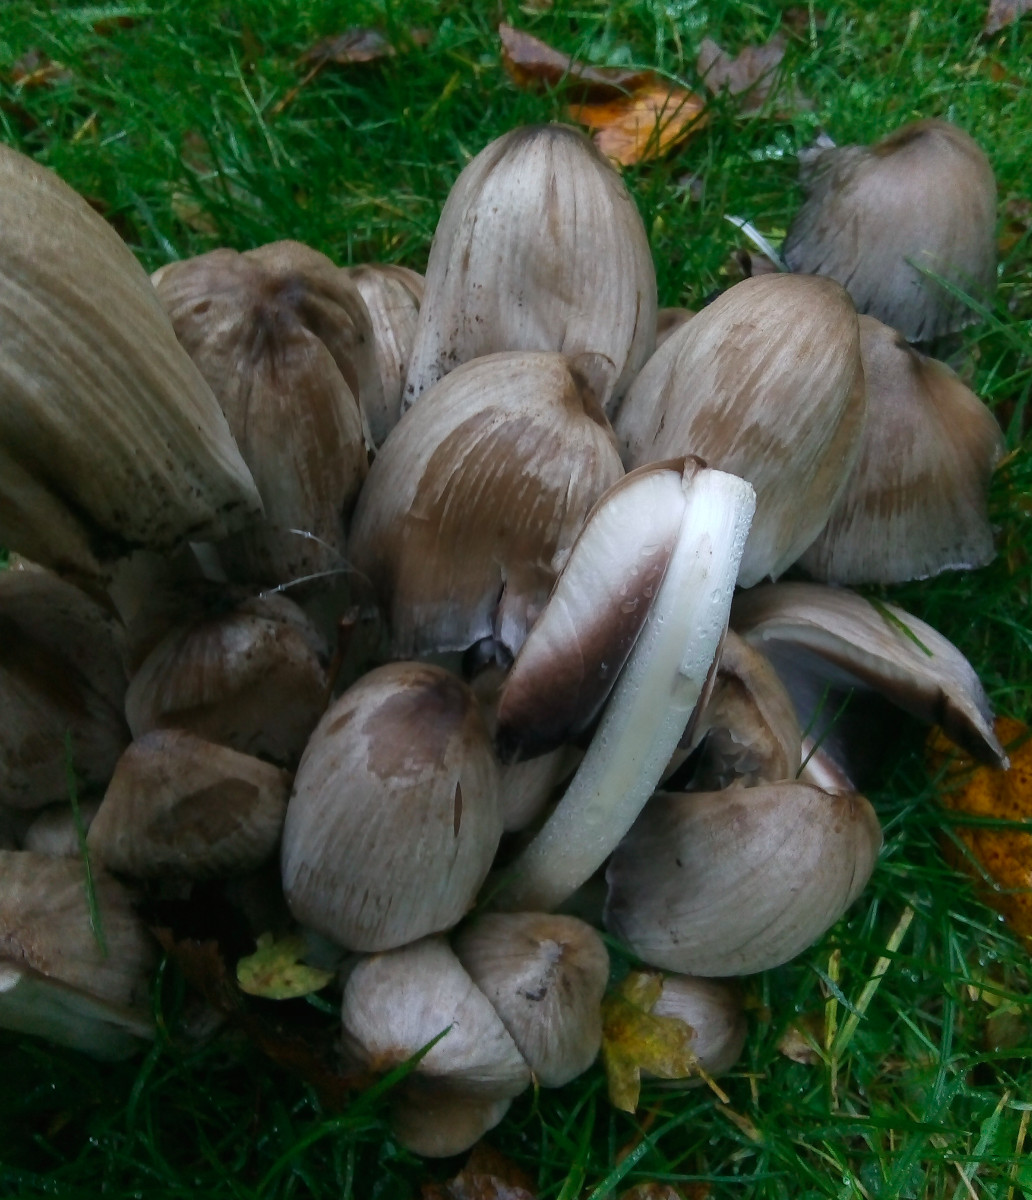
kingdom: Fungi
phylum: Basidiomycota
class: Agaricomycetes
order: Agaricales
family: Psathyrellaceae
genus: Coprinopsis
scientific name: Coprinopsis atramentaria
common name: almindelig blækhat
